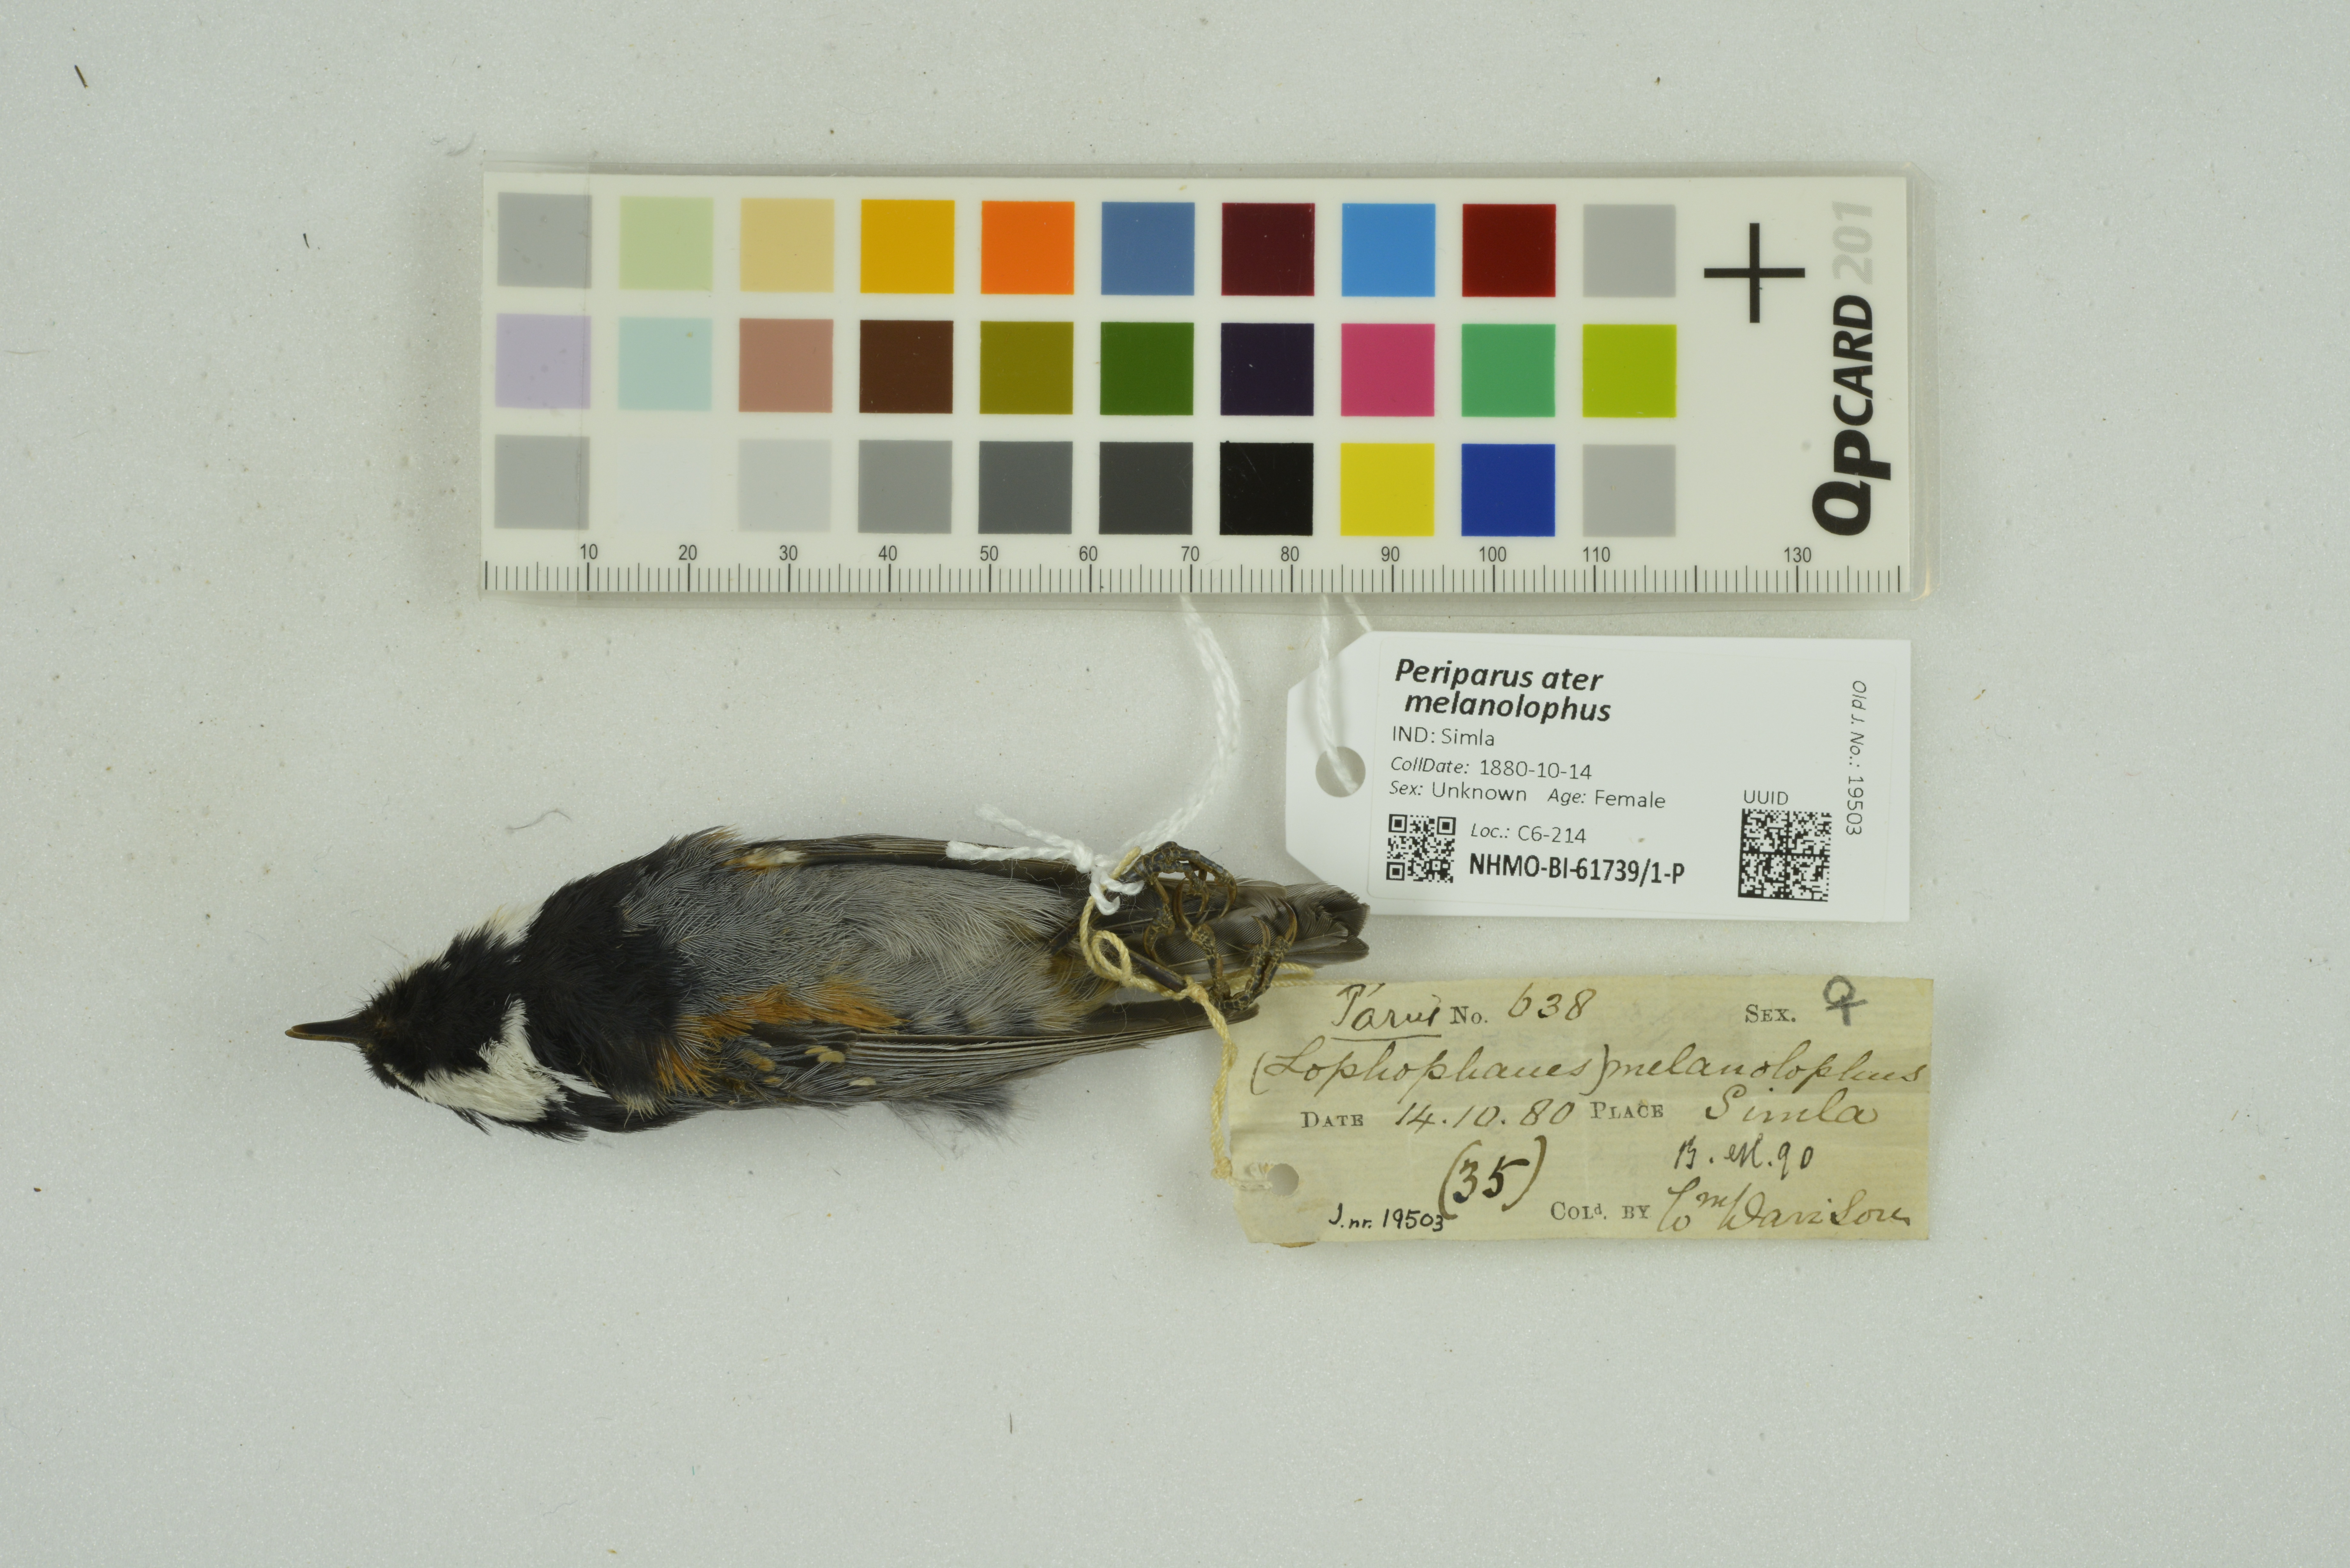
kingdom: Animalia
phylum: Chordata
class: Aves
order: Passeriformes
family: Paridae
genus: Periparus
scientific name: Periparus ater
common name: Coal tit
